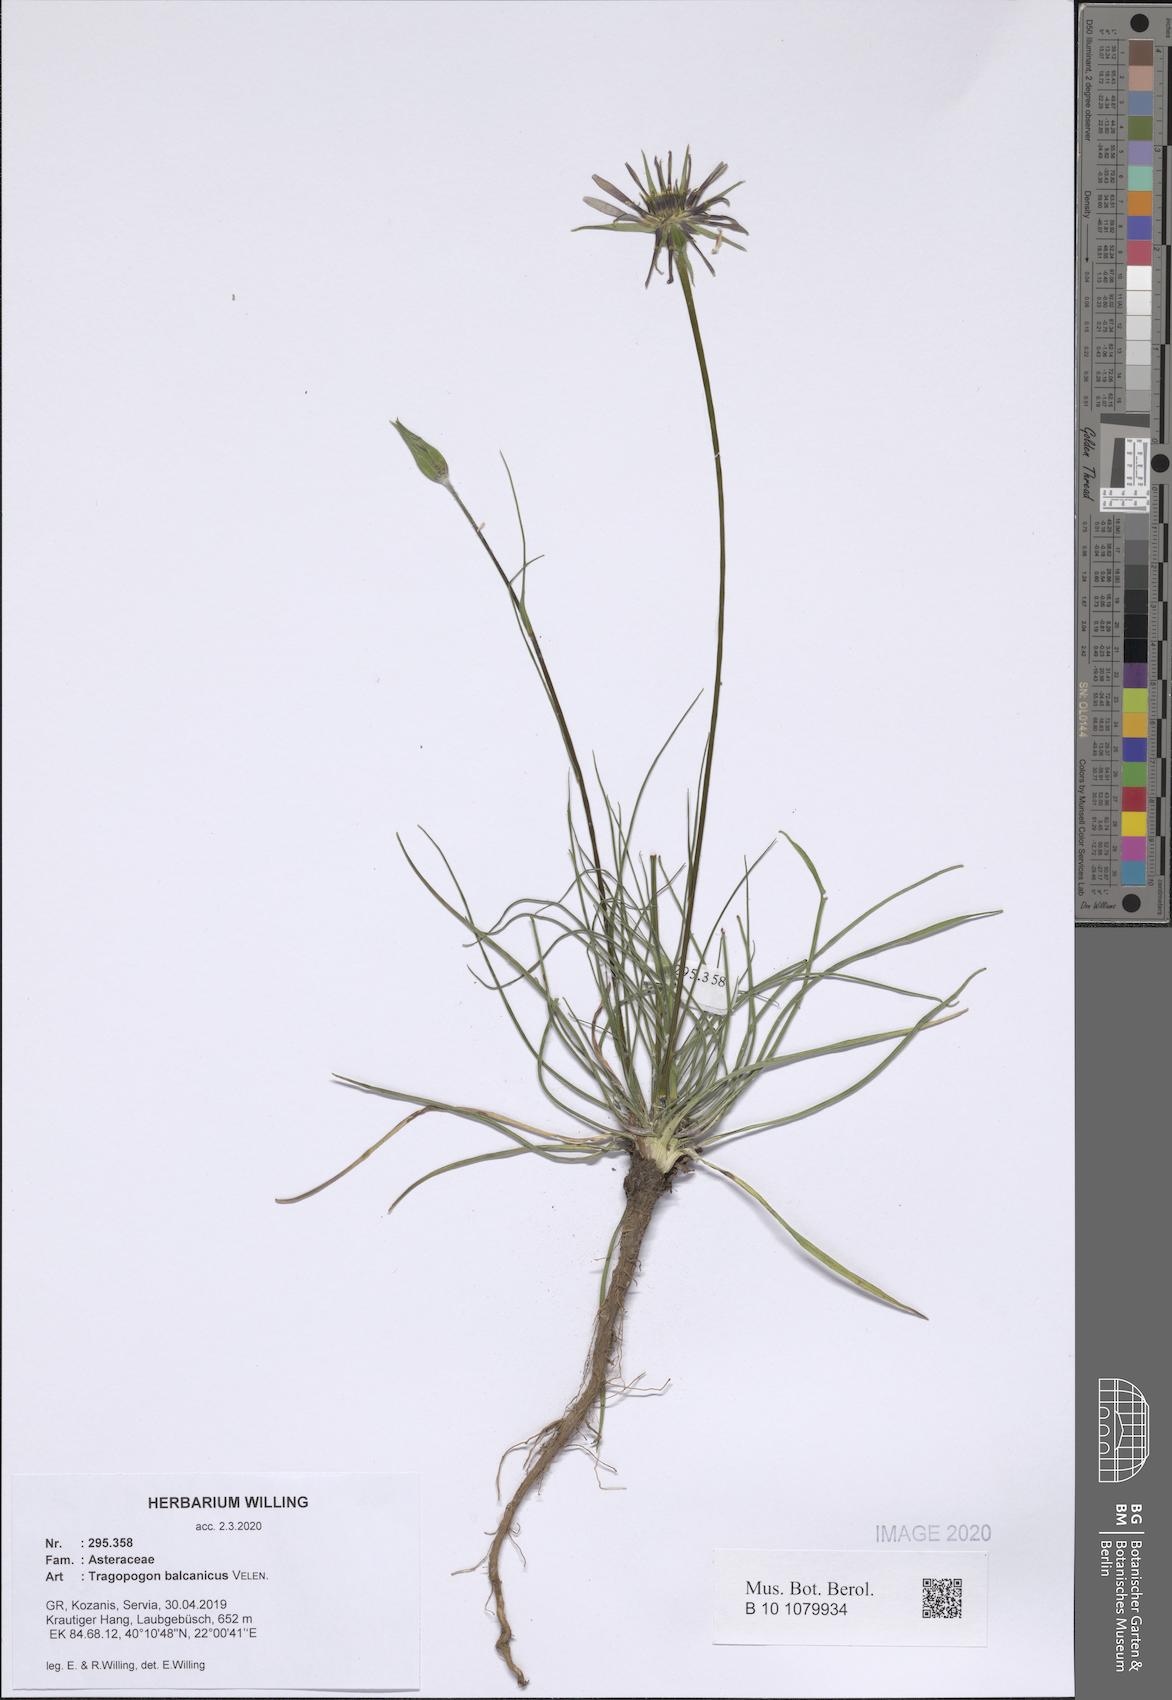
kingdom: Plantae
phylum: Tracheophyta
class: Magnoliopsida
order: Asterales
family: Asteraceae
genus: Tragopogon
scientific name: Tragopogon balcanicus
